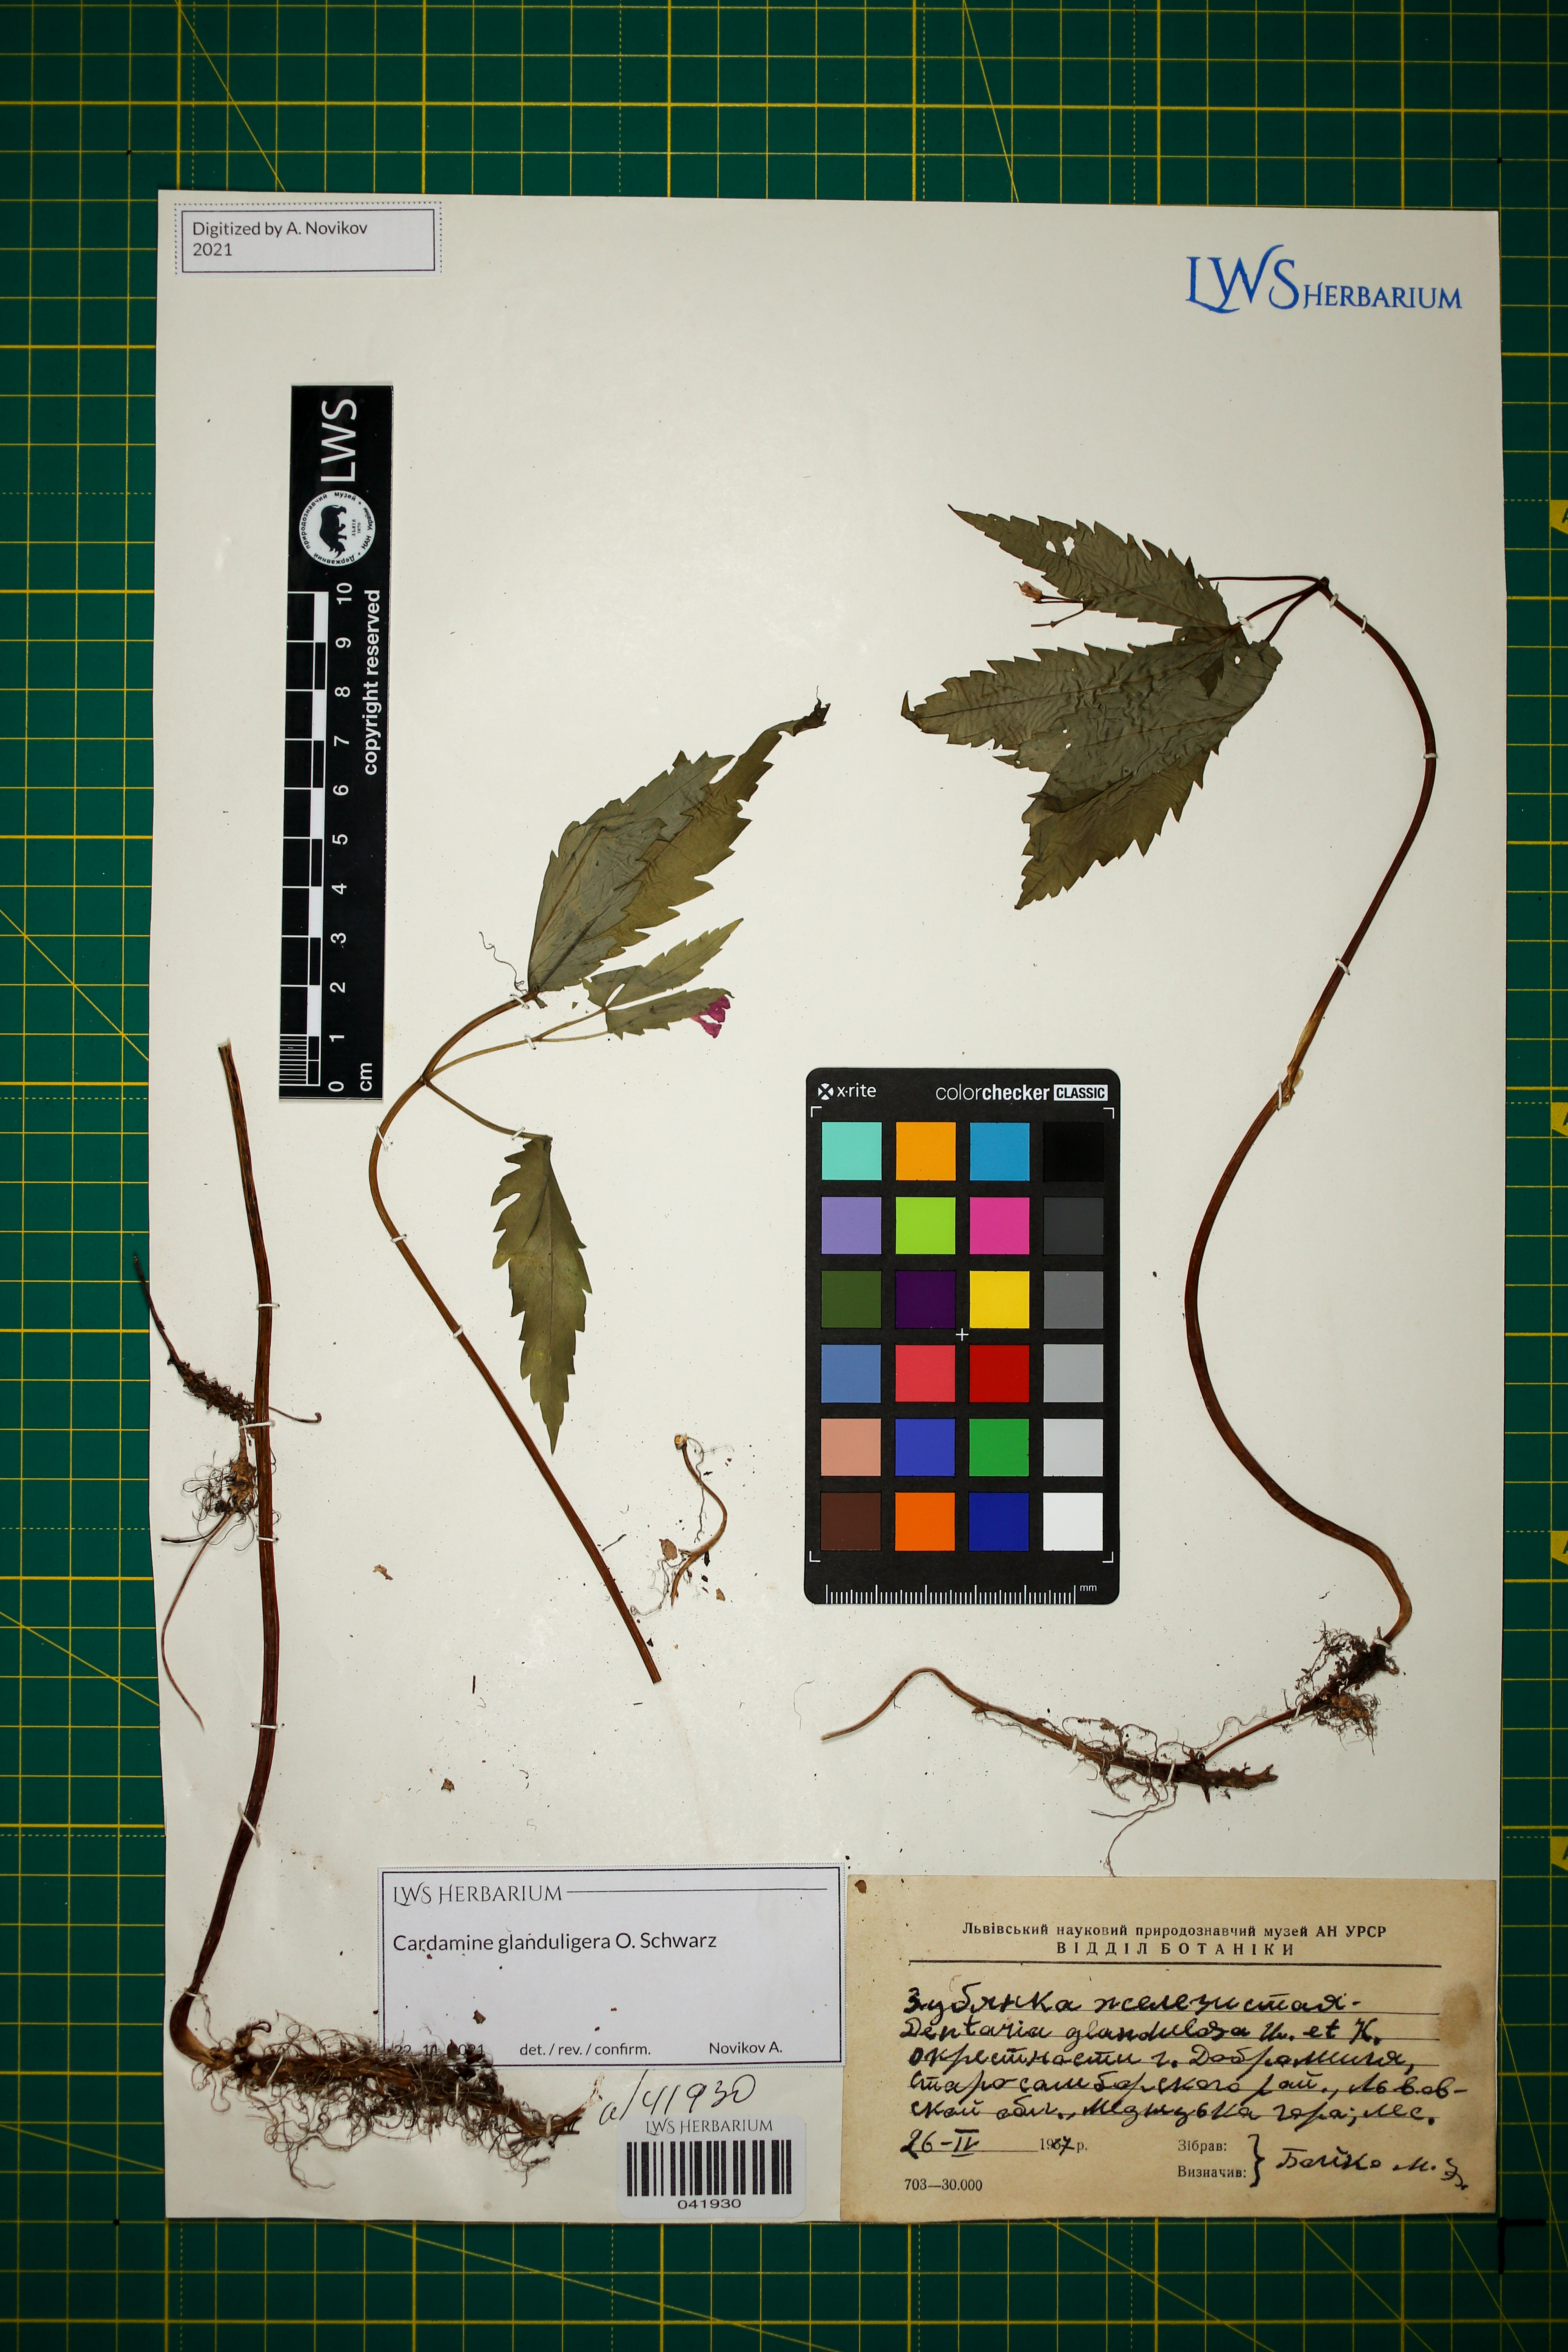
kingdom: Plantae
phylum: Tracheophyta
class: Magnoliopsida
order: Brassicales
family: Brassicaceae
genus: Cardamine
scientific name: Cardamine glanduligera
